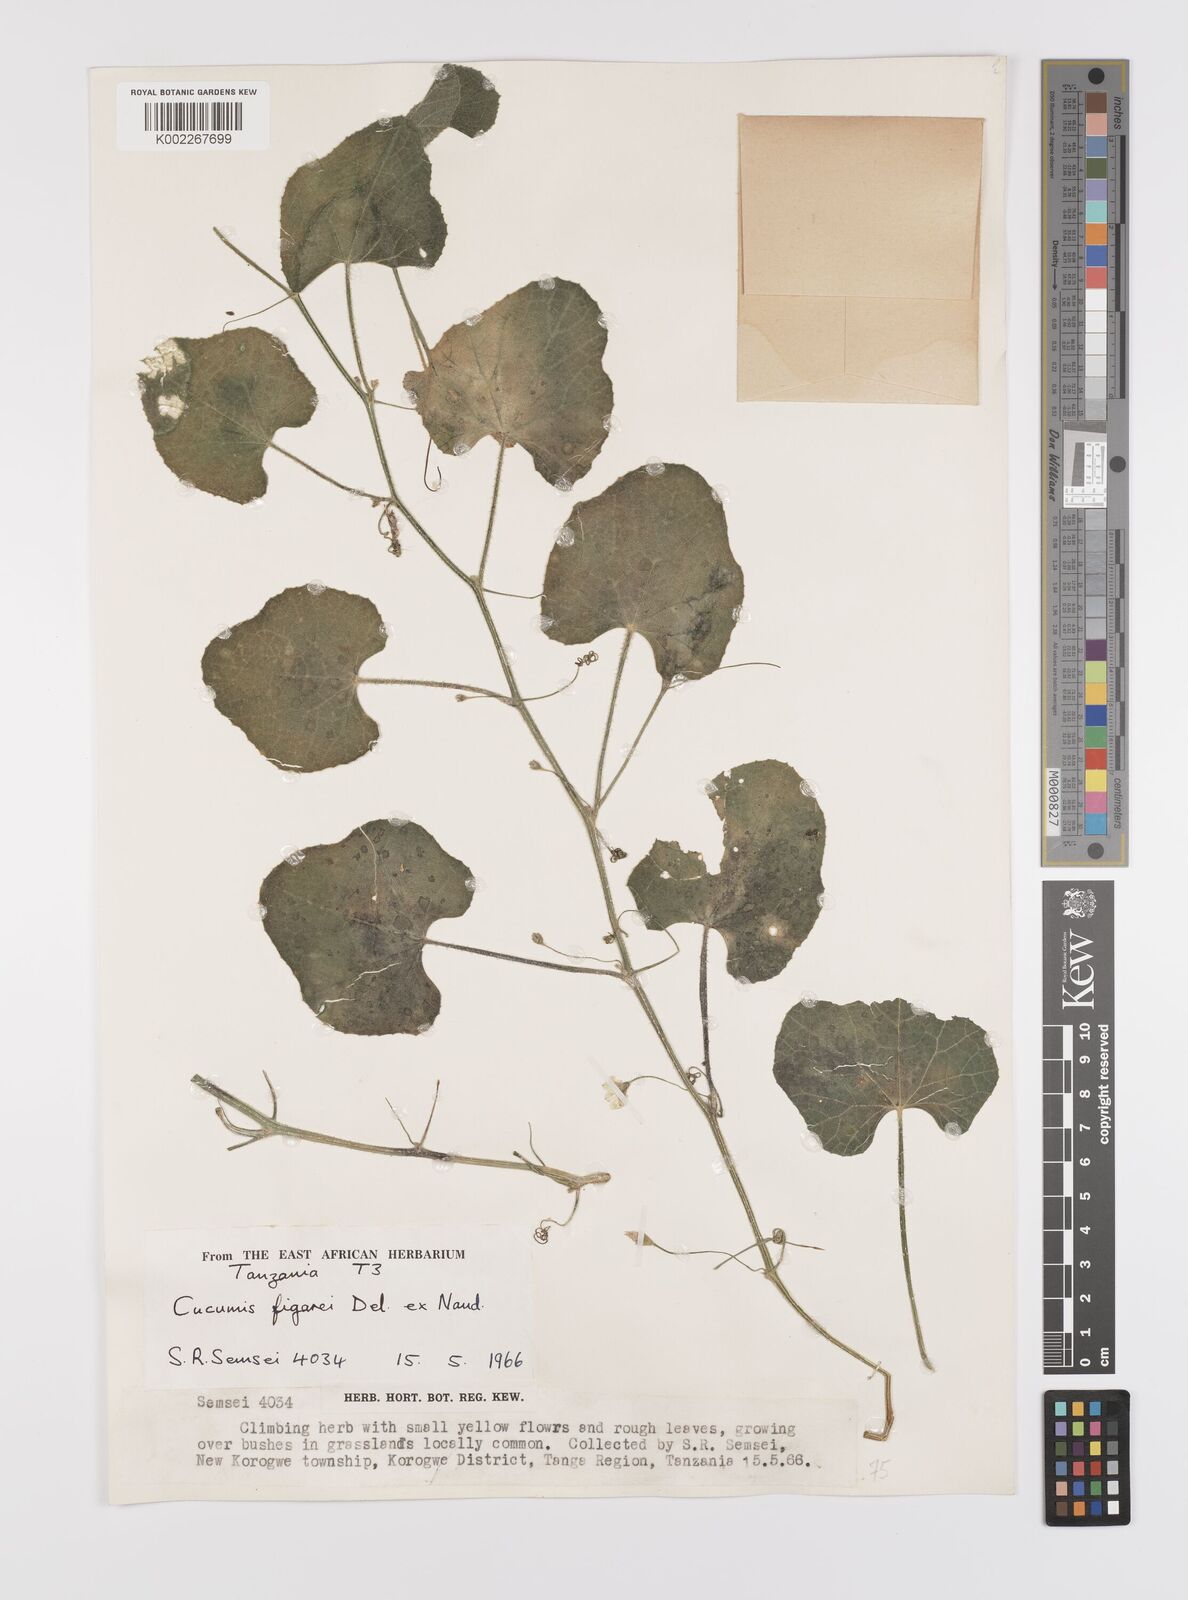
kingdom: Plantae
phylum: Tracheophyta
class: Magnoliopsida
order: Cucurbitales
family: Cucurbitaceae
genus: Cucumis
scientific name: Cucumis
